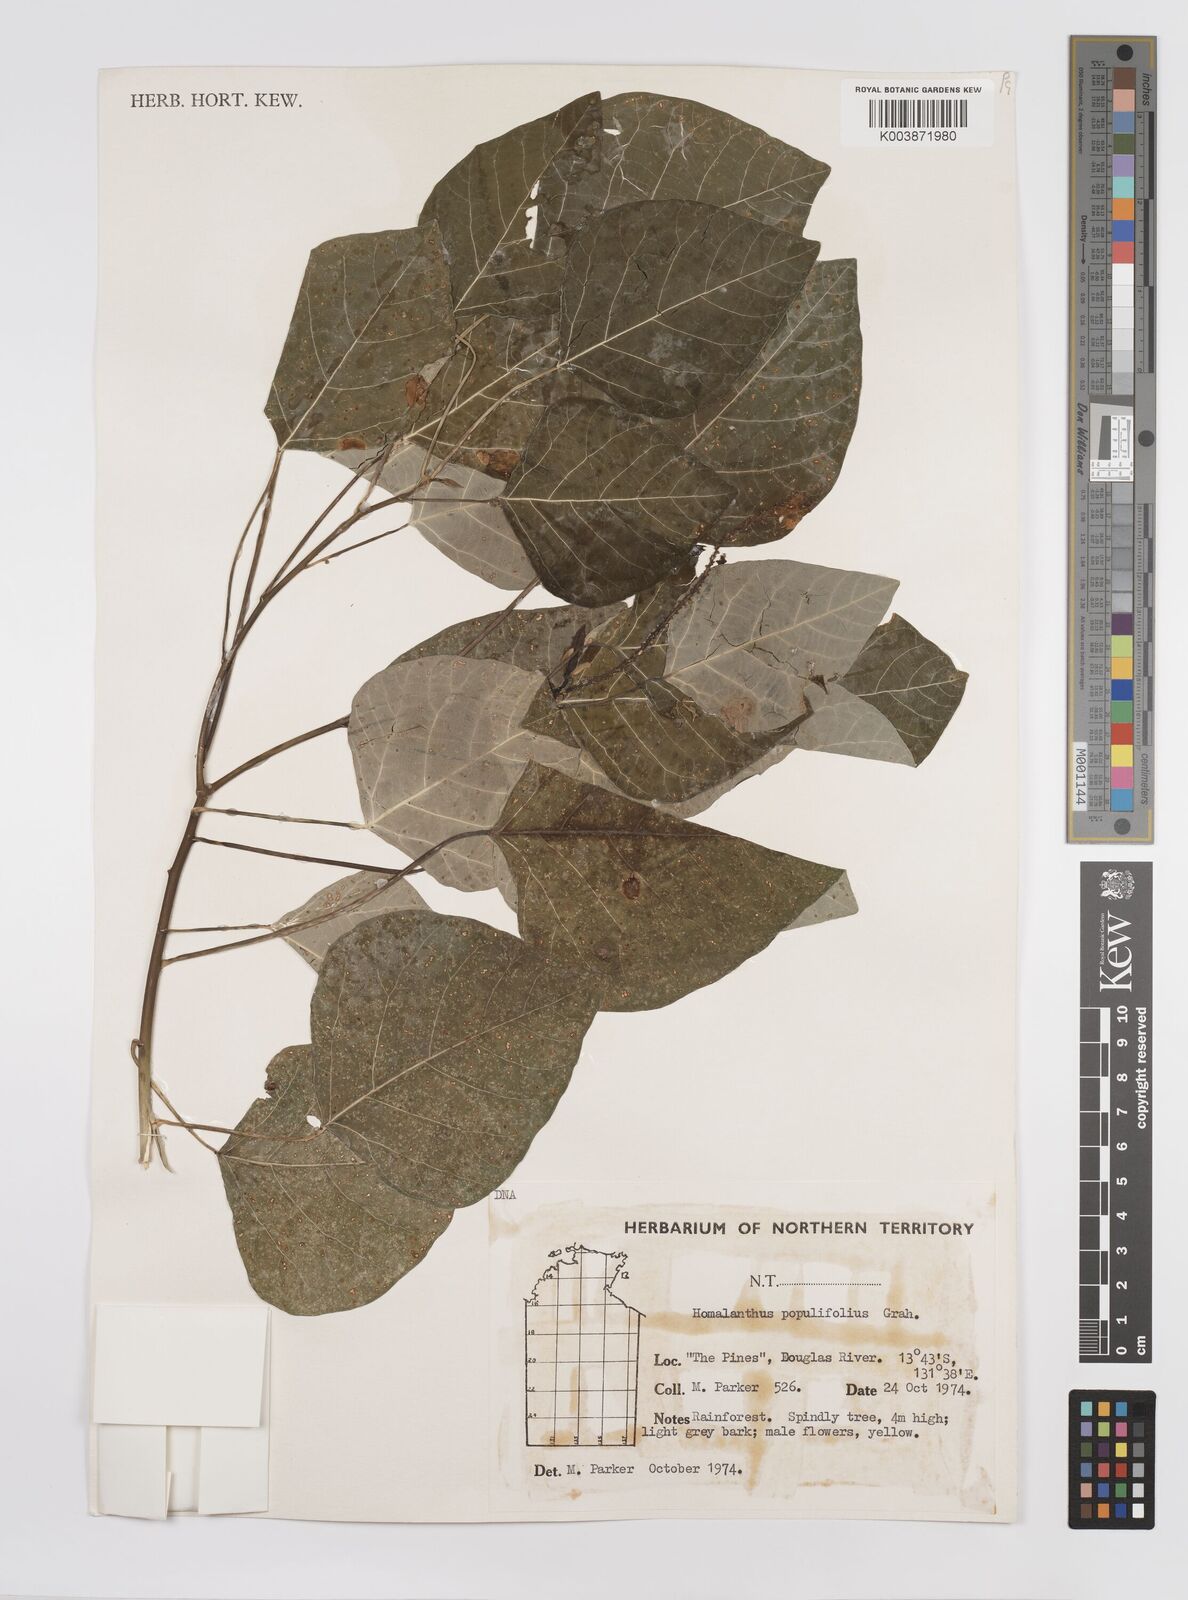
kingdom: Plantae
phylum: Tracheophyta
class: Magnoliopsida
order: Malpighiales
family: Euphorbiaceae
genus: Homalanthus
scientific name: Homalanthus novoguineensis
